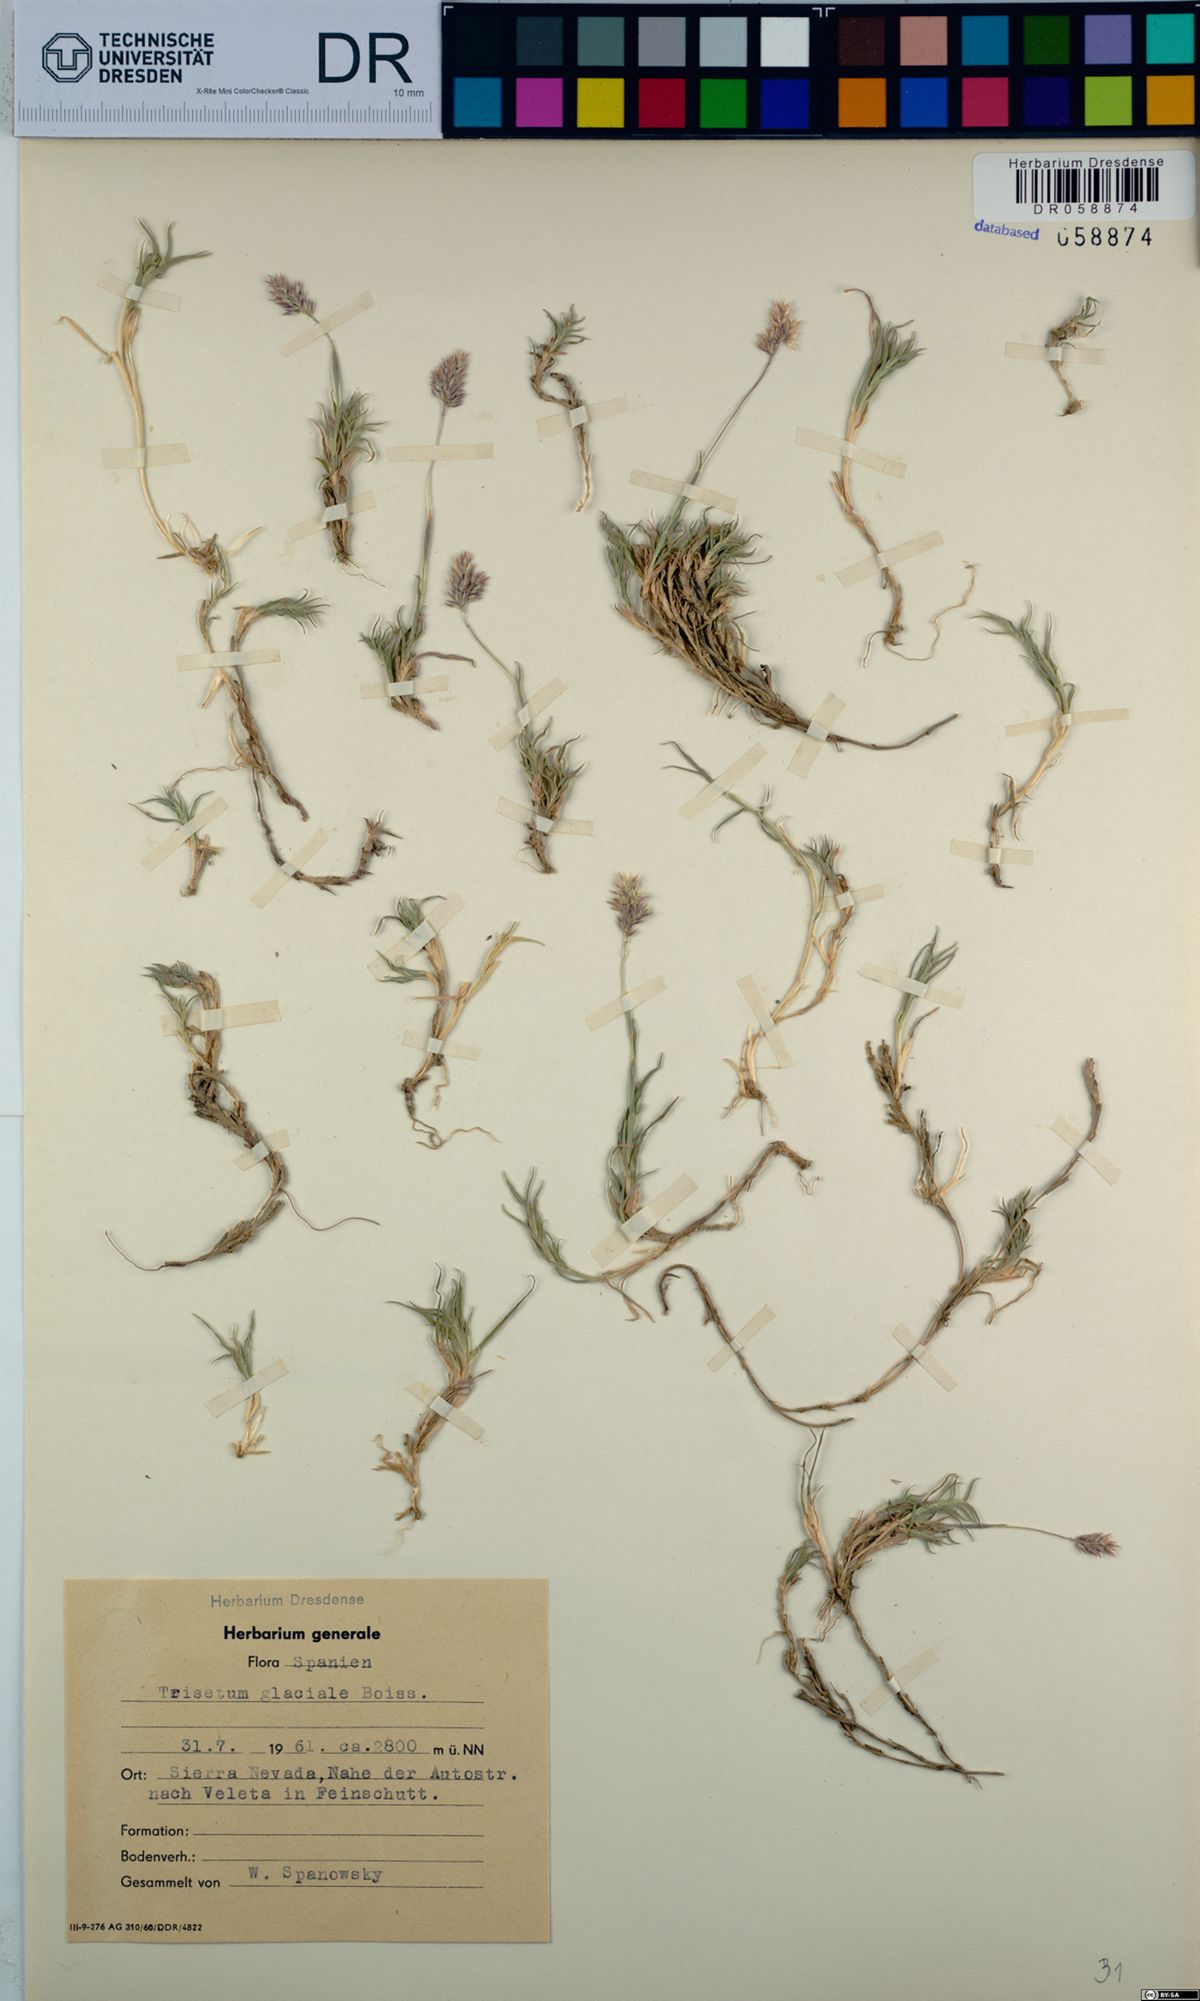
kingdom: Plantae
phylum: Tracheophyta
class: Liliopsida
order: Poales
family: Poaceae
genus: Acrospelion
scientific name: Acrospelion glaciale
